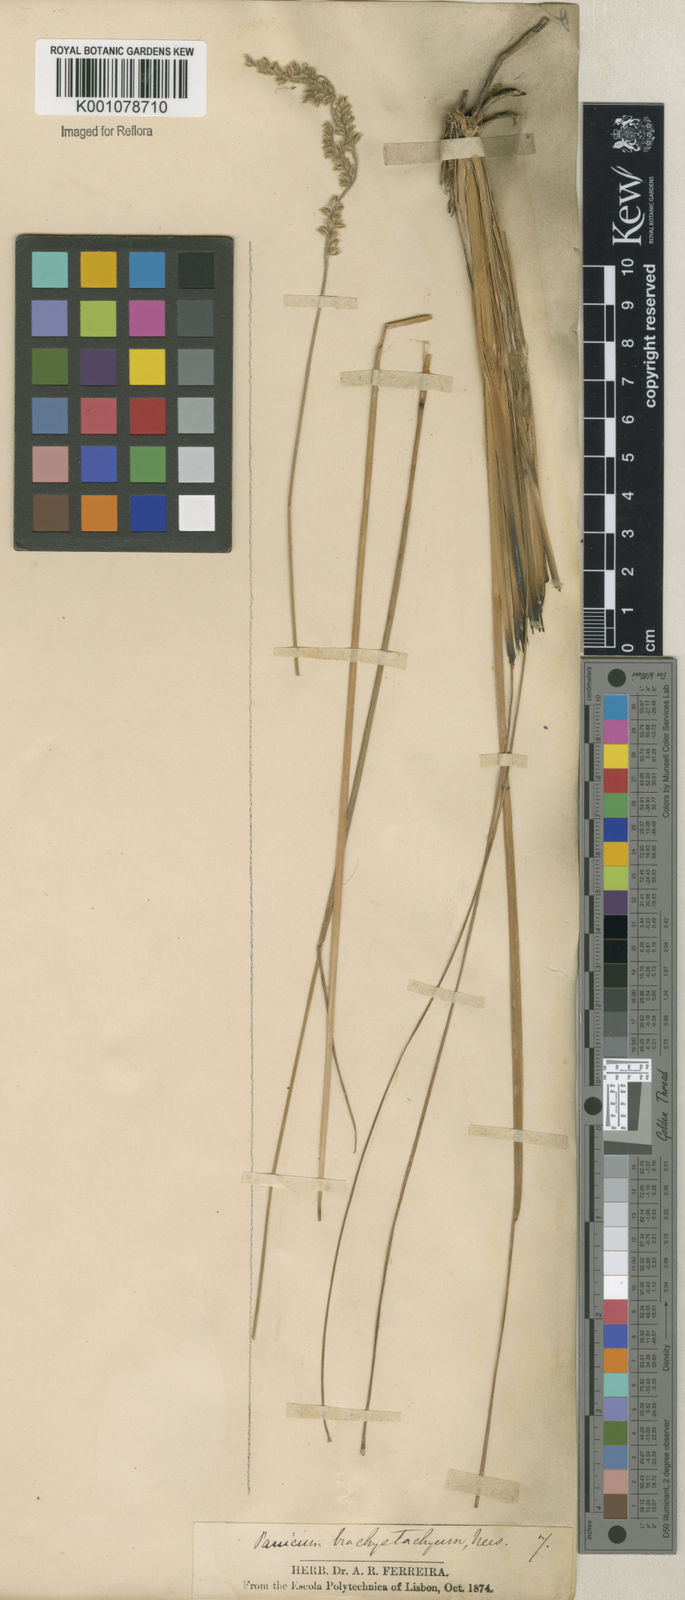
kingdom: Plantae
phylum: Tracheophyta
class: Liliopsida
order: Poales
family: Poaceae
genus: Anthaenantiopsis
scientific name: Anthaenantiopsis trachystachya
